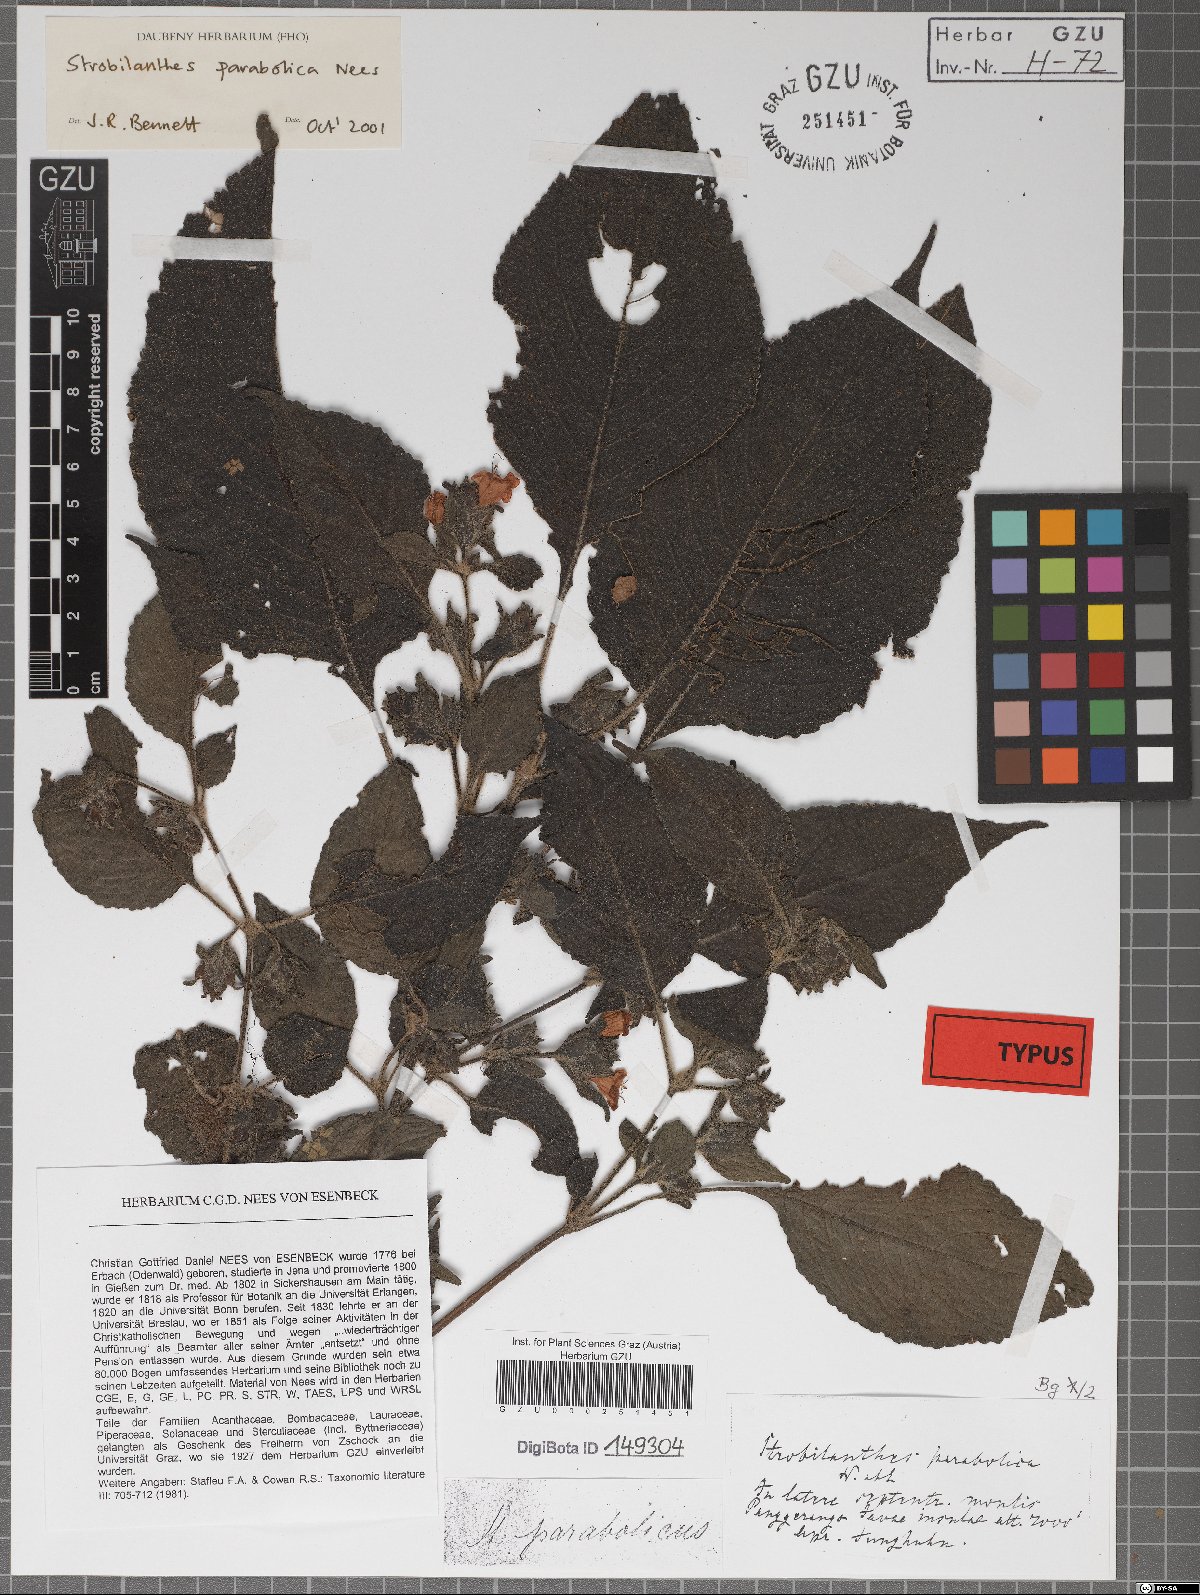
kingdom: Plantae
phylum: Tracheophyta
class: Magnoliopsida
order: Lamiales
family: Acanthaceae
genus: Strobilanthes
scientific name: Strobilanthes parabolica
